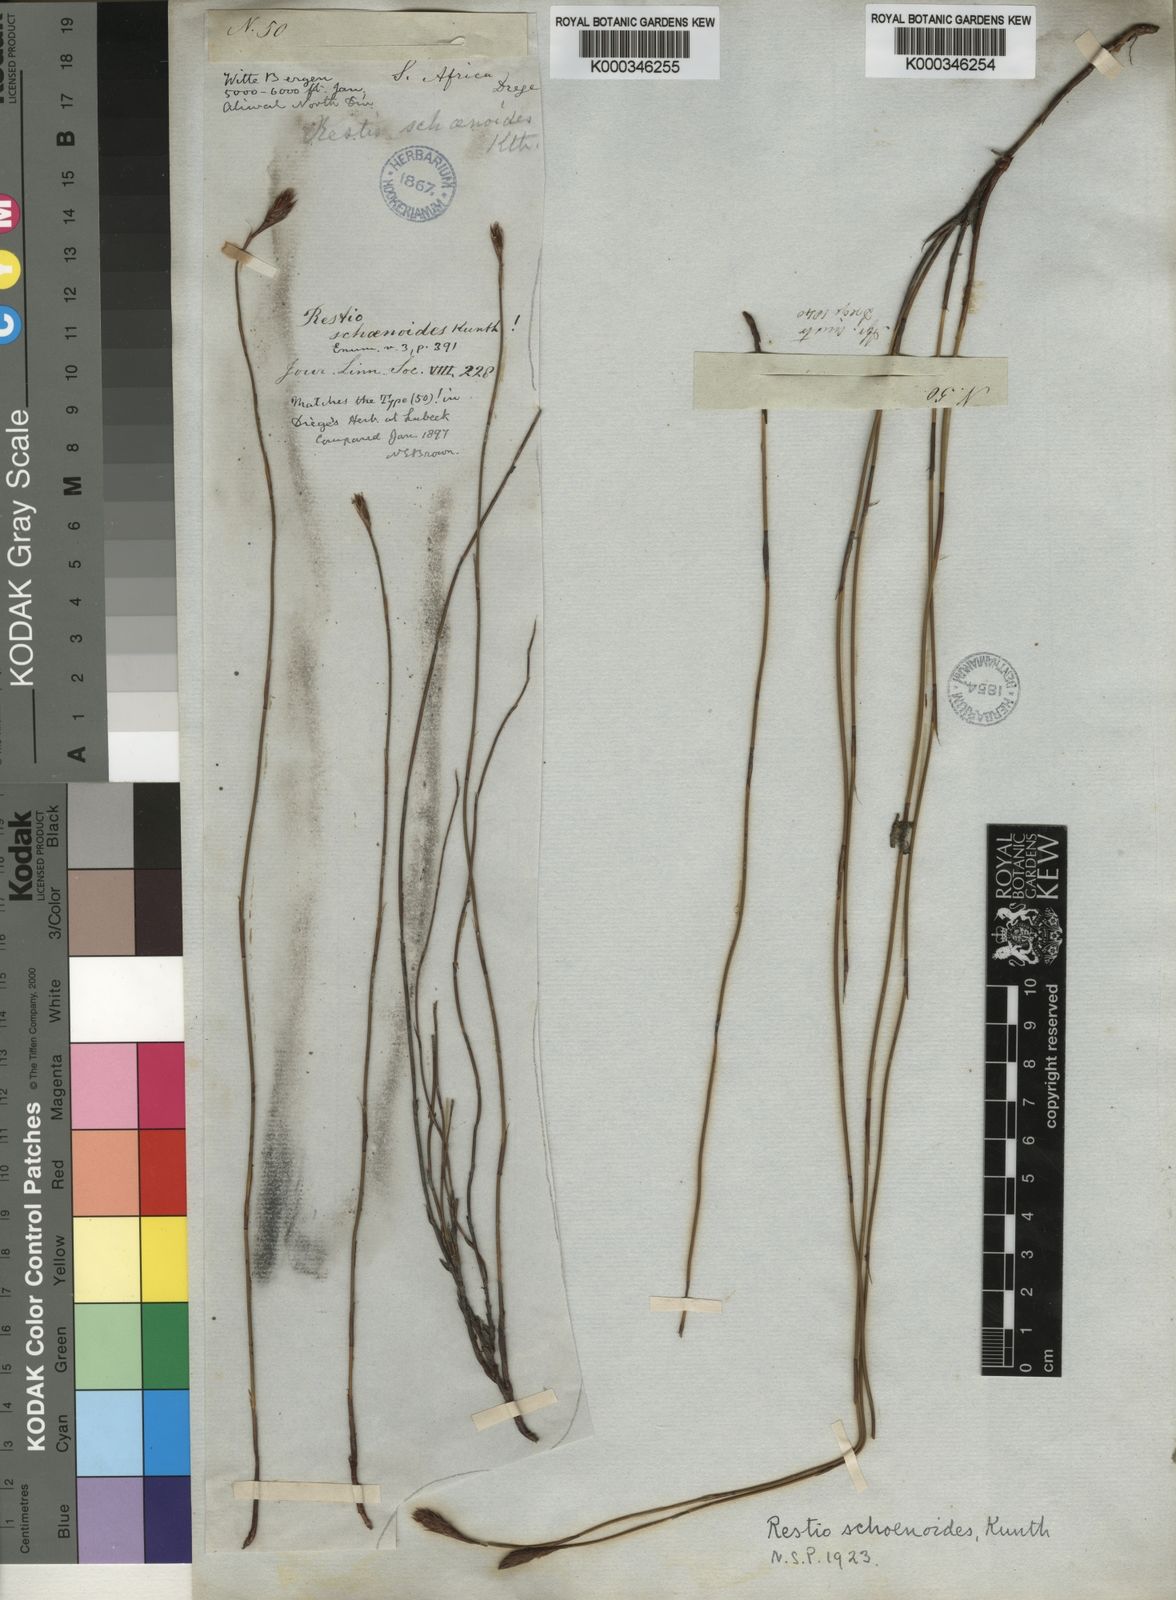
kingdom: Plantae
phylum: Tracheophyta
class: Liliopsida
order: Poales
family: Restionaceae
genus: Restio
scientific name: Restio schoenoides
